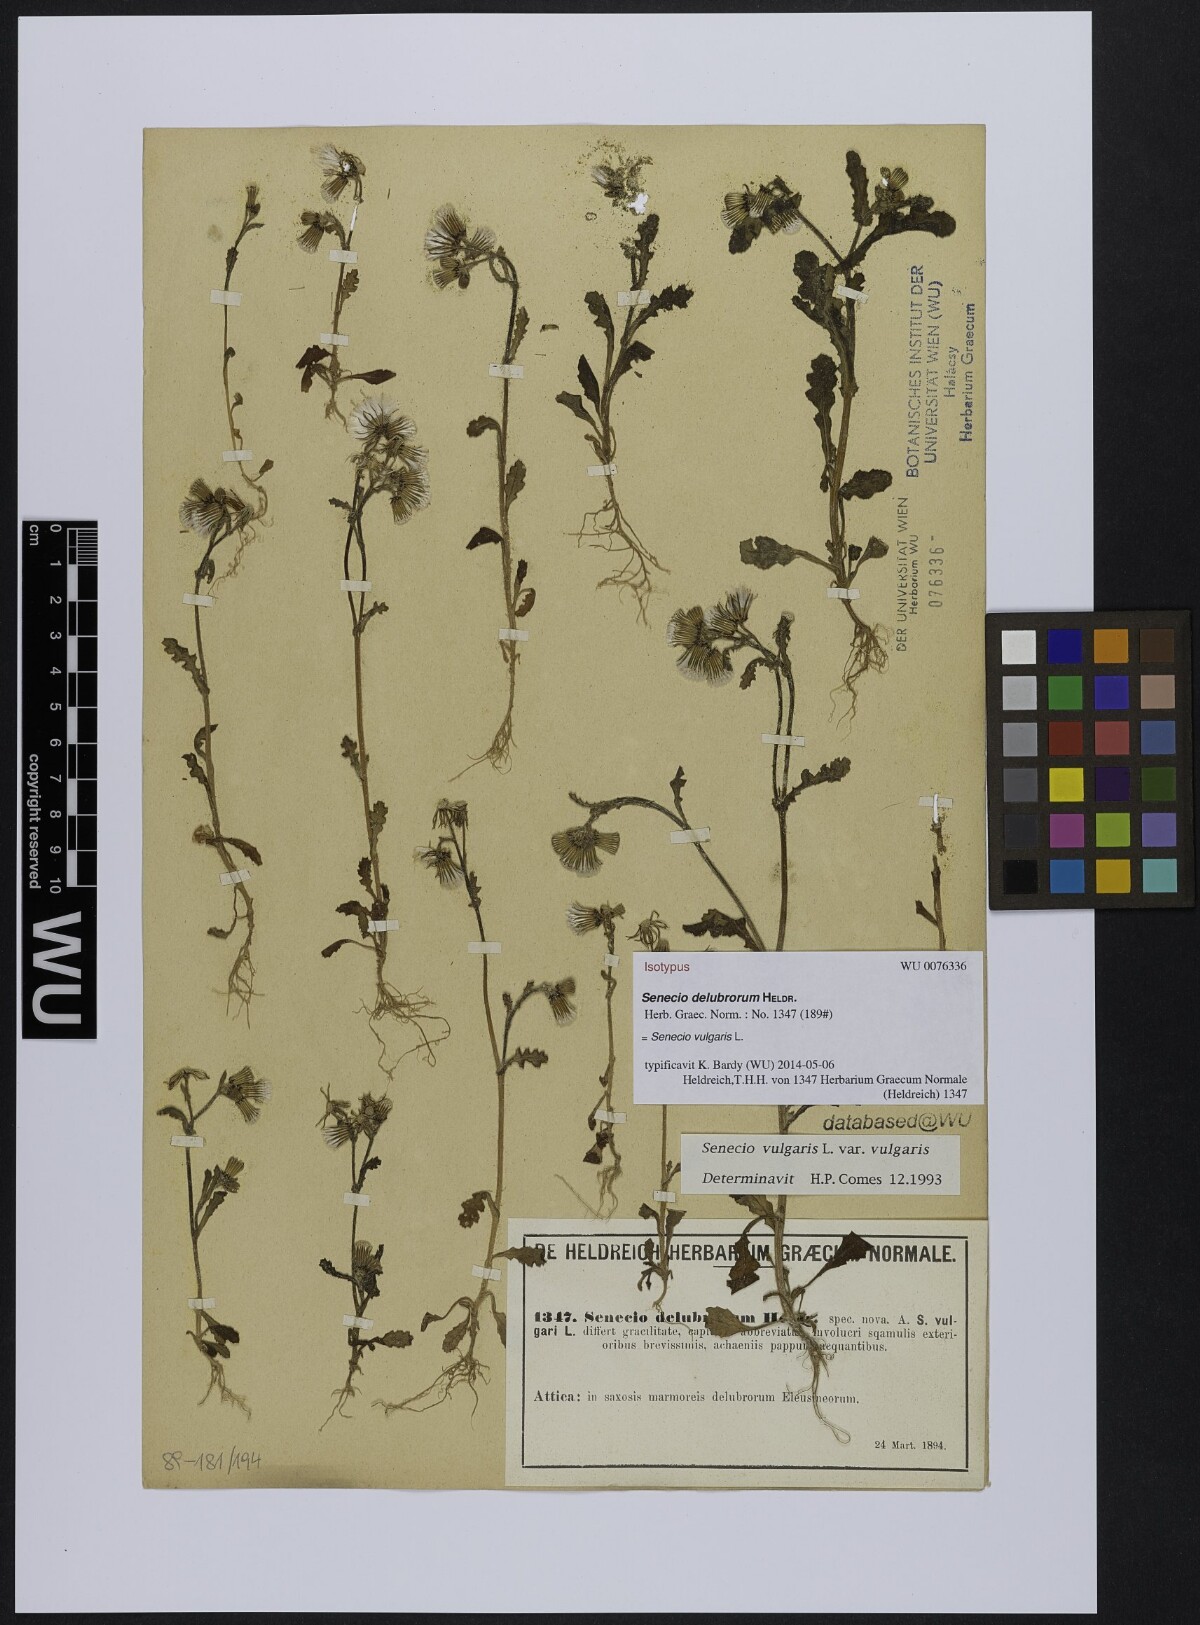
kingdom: Plantae
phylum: Tracheophyta
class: Magnoliopsida
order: Asterales
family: Asteraceae
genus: Senecio
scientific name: Senecio delubrorum
